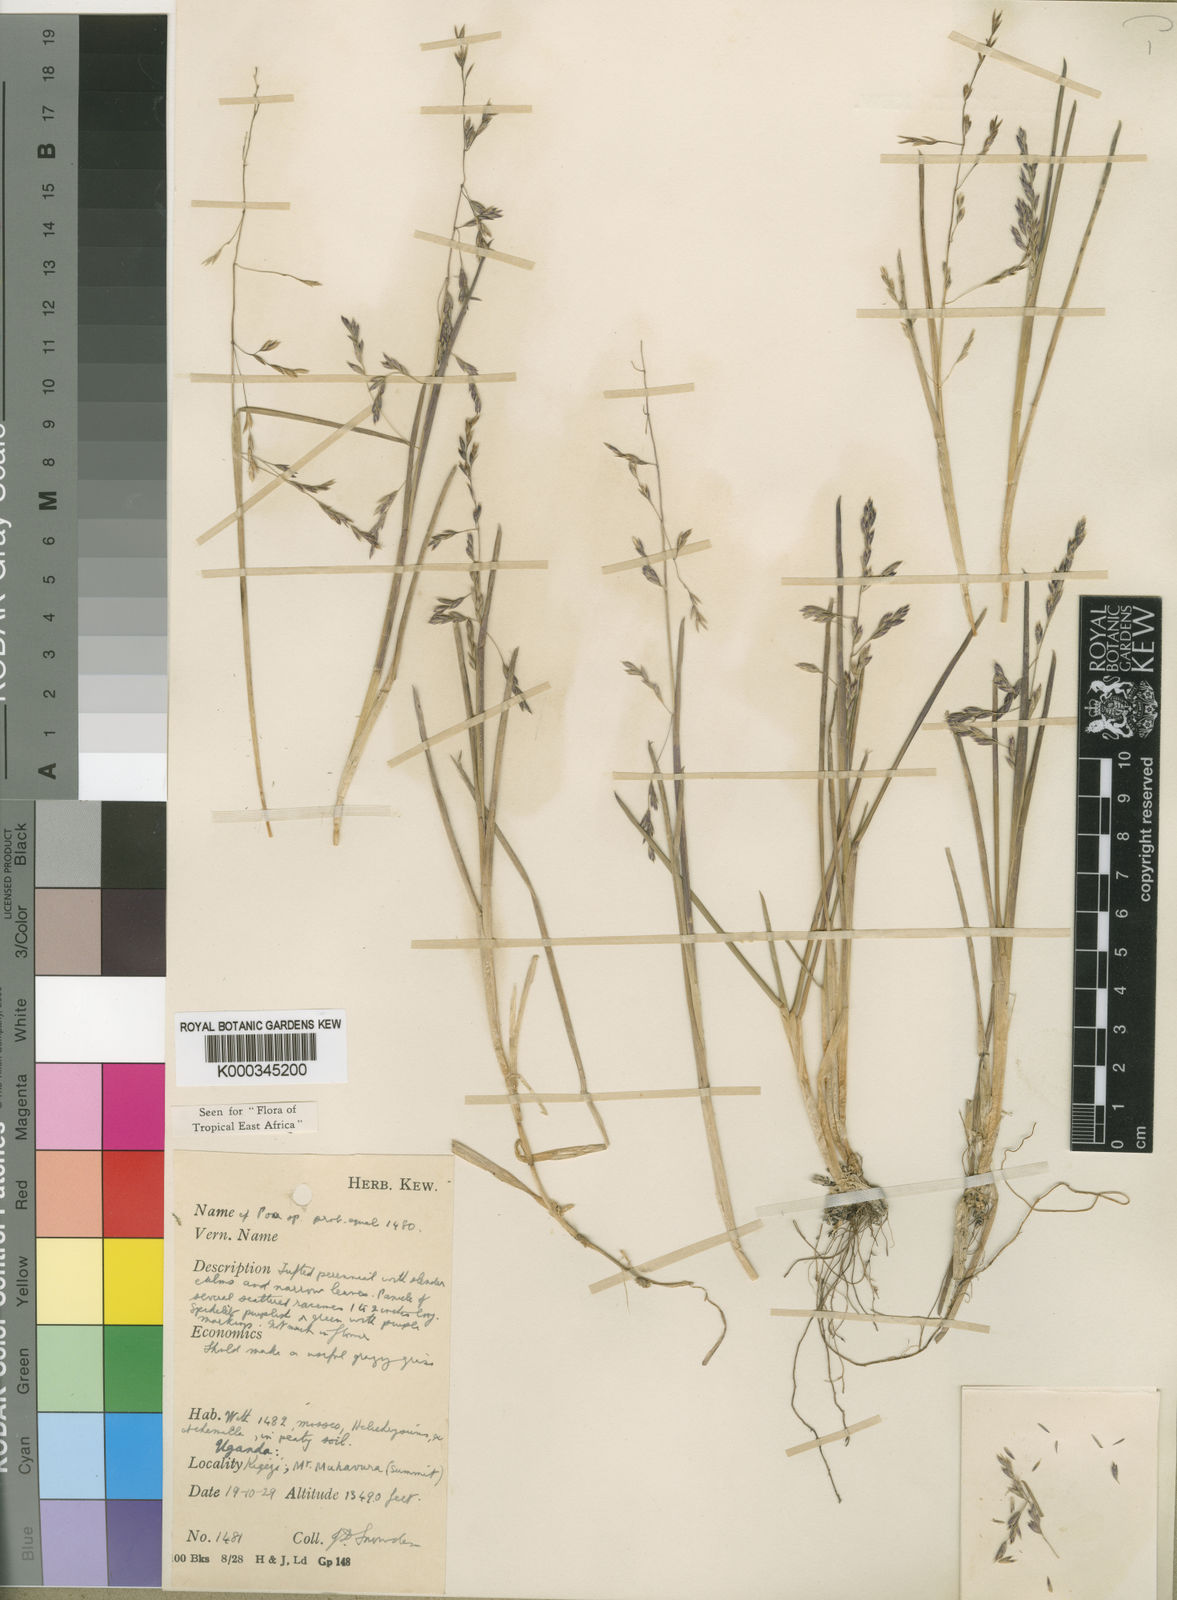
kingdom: Plantae
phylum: Tracheophyta
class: Liliopsida
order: Poales
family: Poaceae
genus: Poa
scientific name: Poa schimperiana
